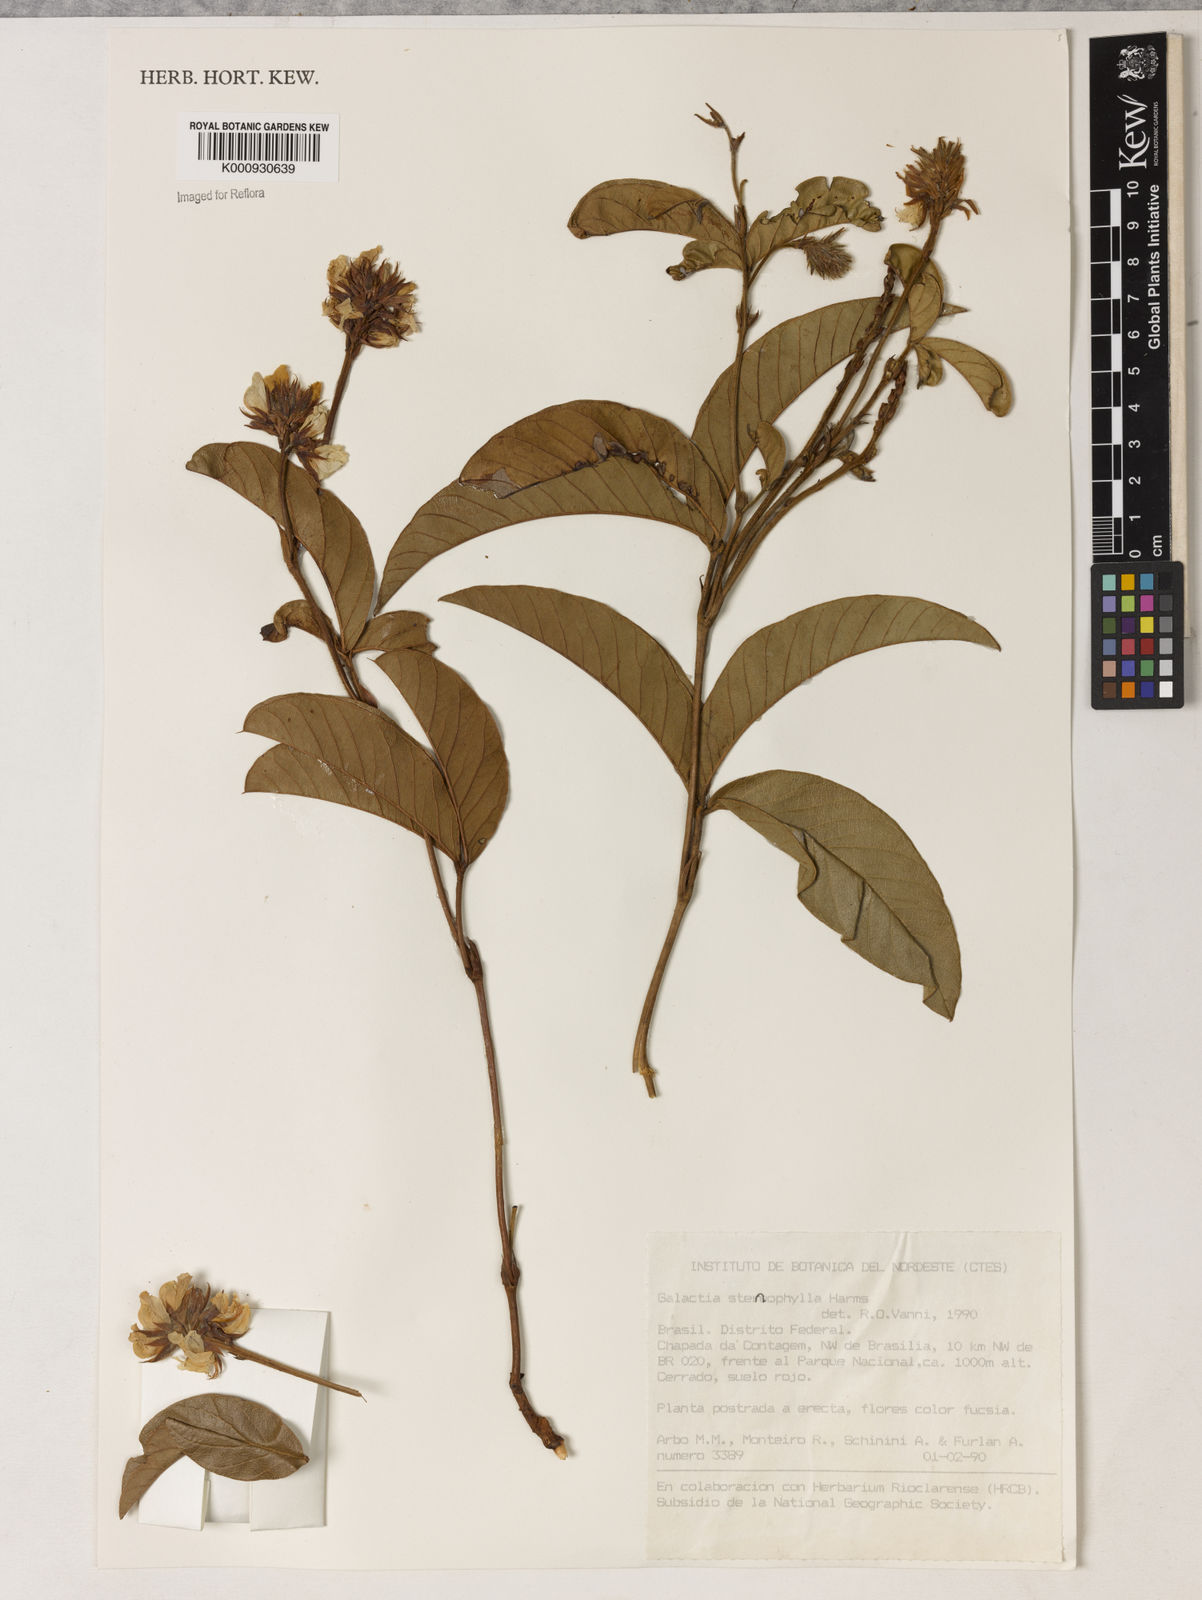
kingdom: Plantae
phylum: Tracheophyta
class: Magnoliopsida
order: Fabales
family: Fabaceae
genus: Betencourtia
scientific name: Betencourtia stereophylla
